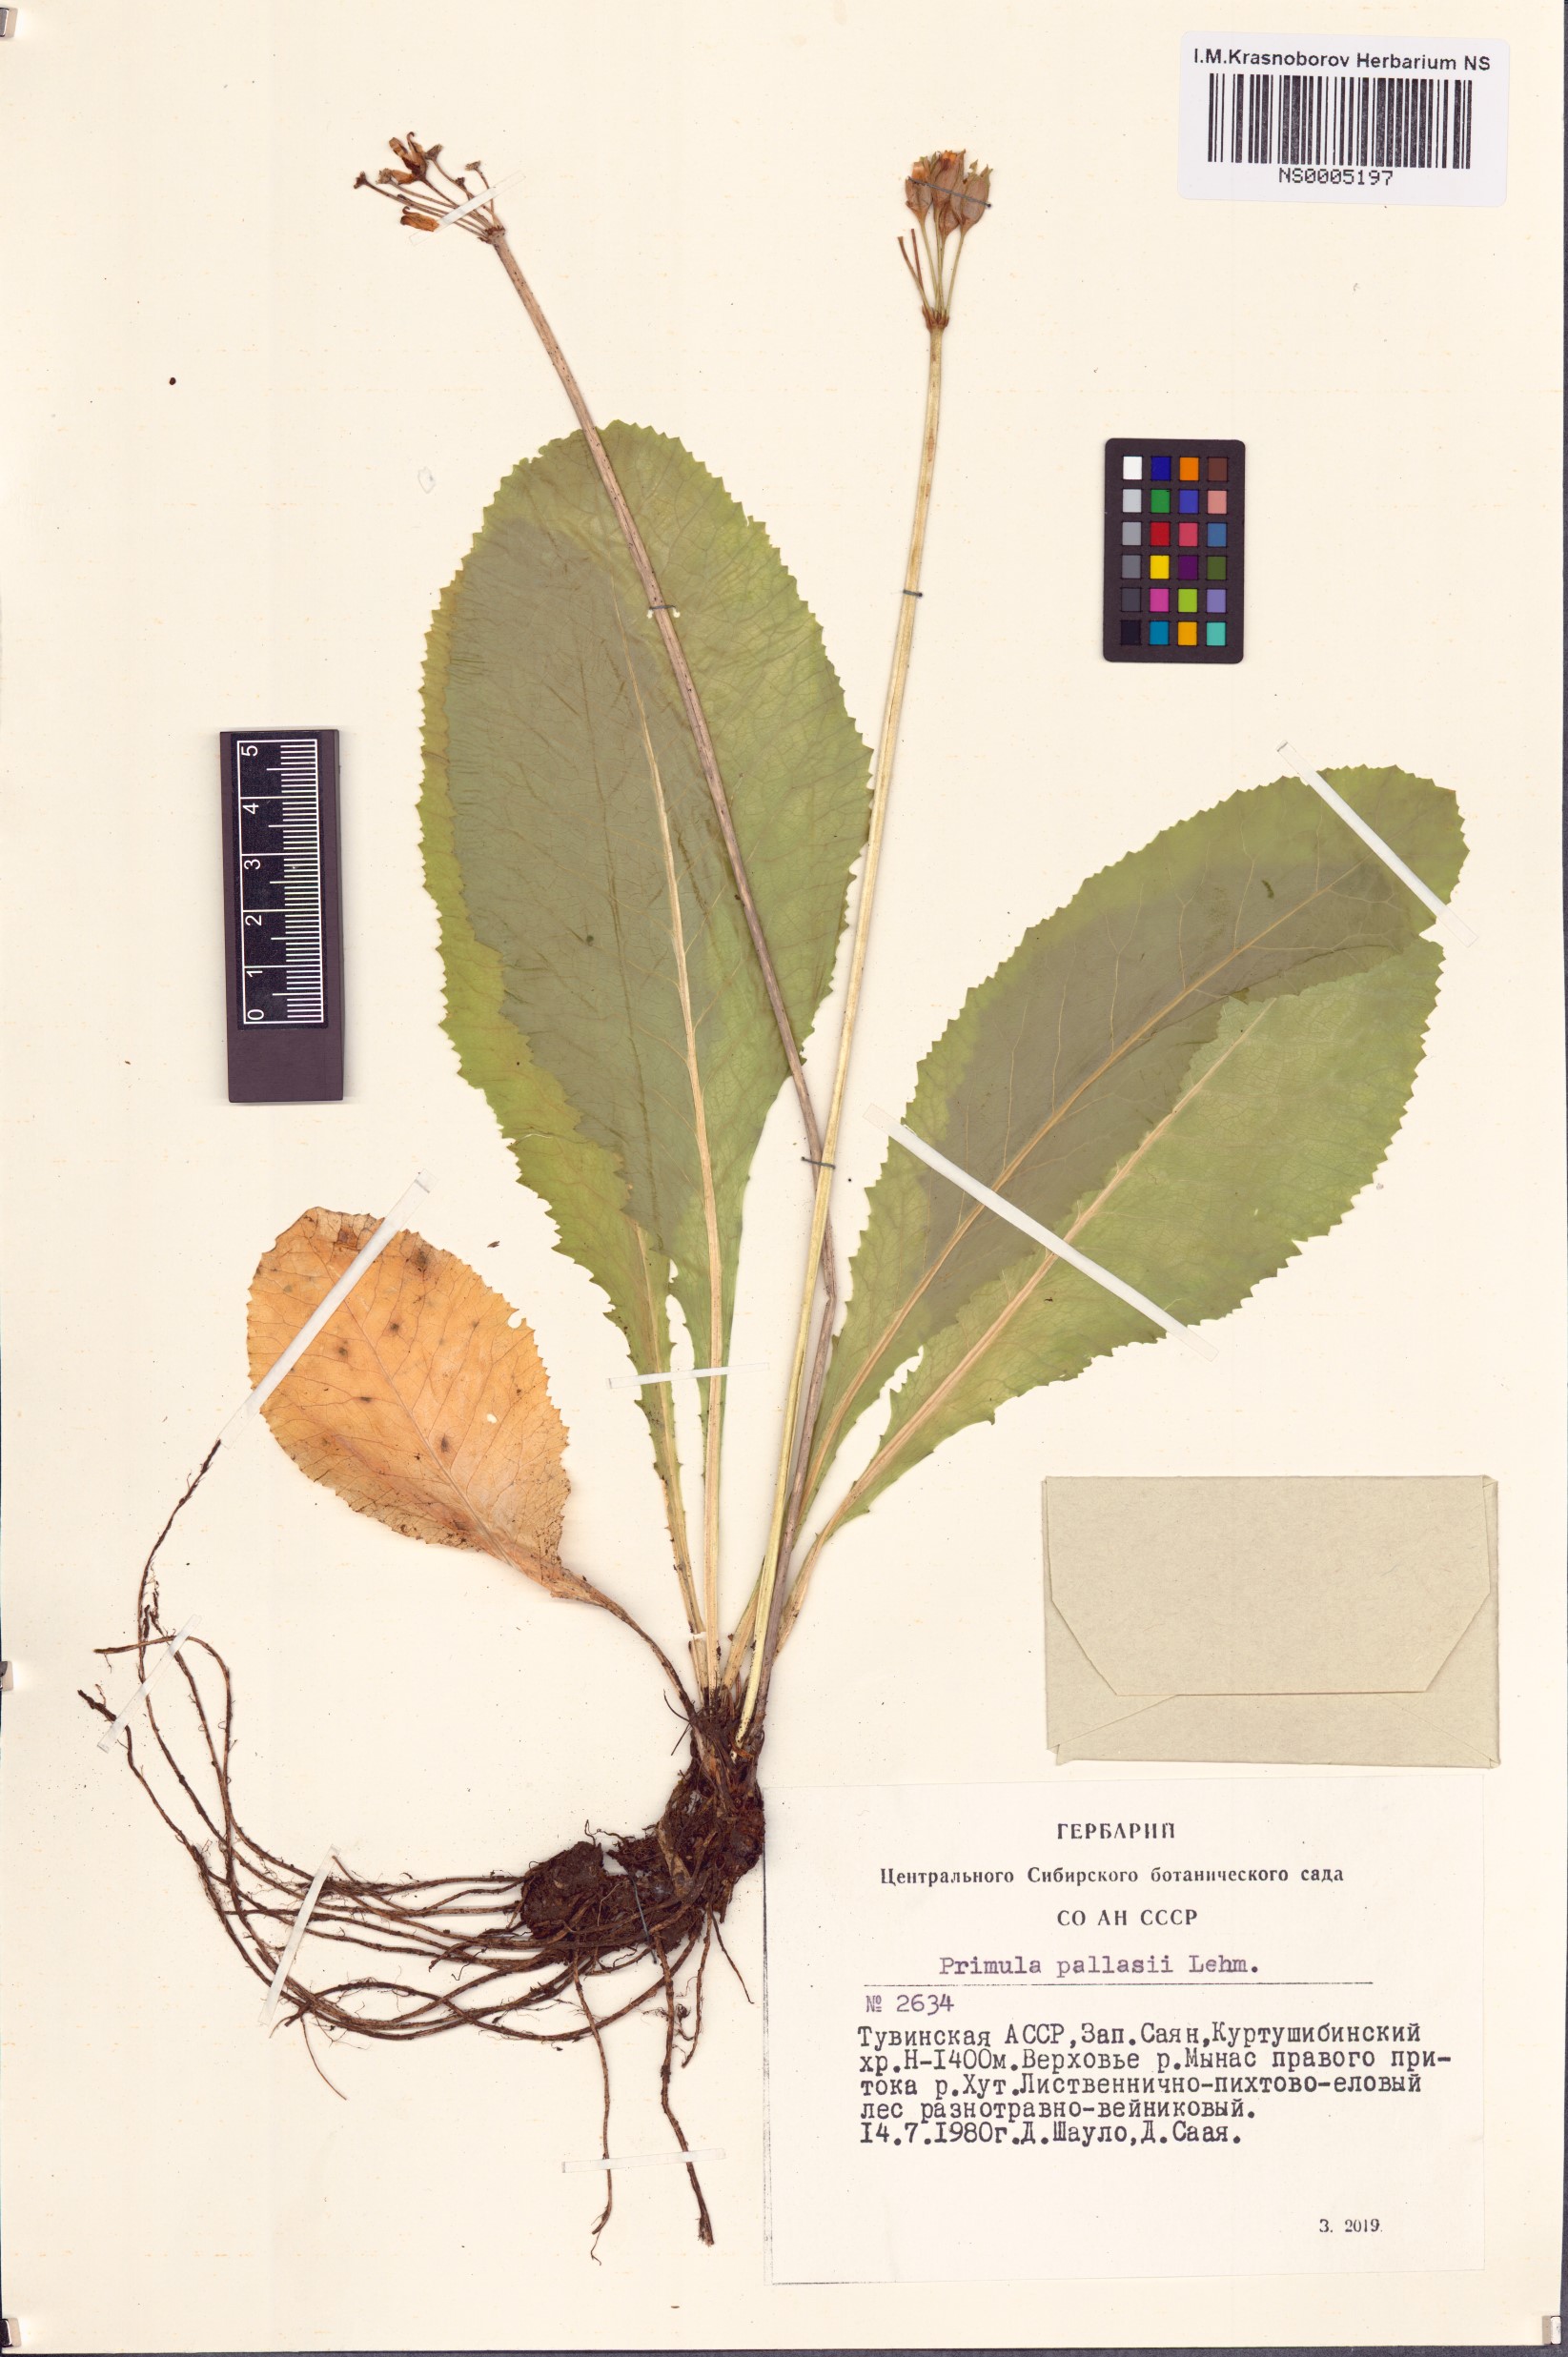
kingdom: Plantae
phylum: Tracheophyta
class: Magnoliopsida
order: Ericales
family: Primulaceae
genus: Primula
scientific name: Primula elatior
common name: Oxlip
